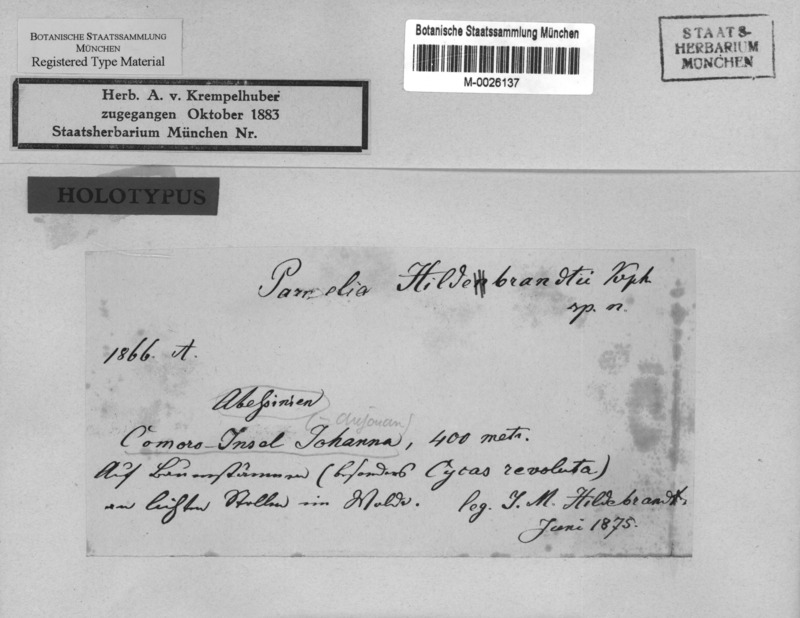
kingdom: Fungi
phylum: Ascomycota
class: Lecanoromycetes
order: Lecanorales
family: Parmeliaceae
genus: Parmotrema
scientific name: Parmotrema cristiferum
